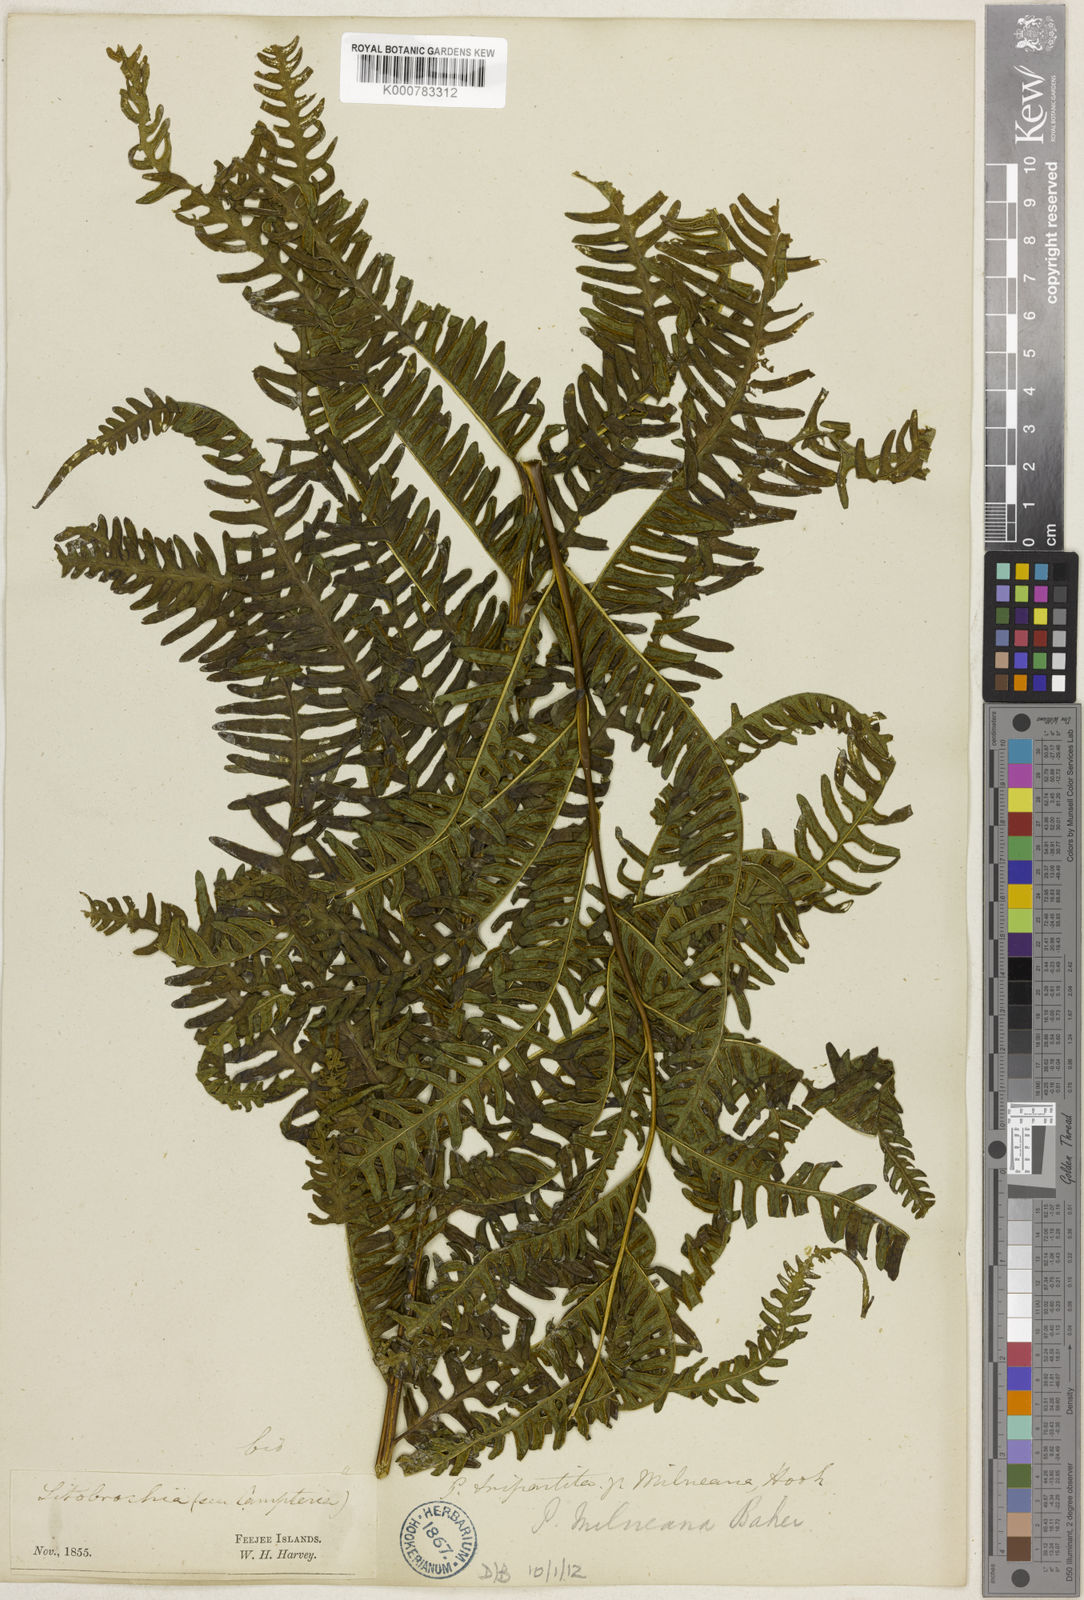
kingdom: Plantae
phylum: Tracheophyta
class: Polypodiopsida
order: Polypodiales
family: Pteridaceae
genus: Pteris
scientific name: Pteris tripartita
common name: Giant brake
